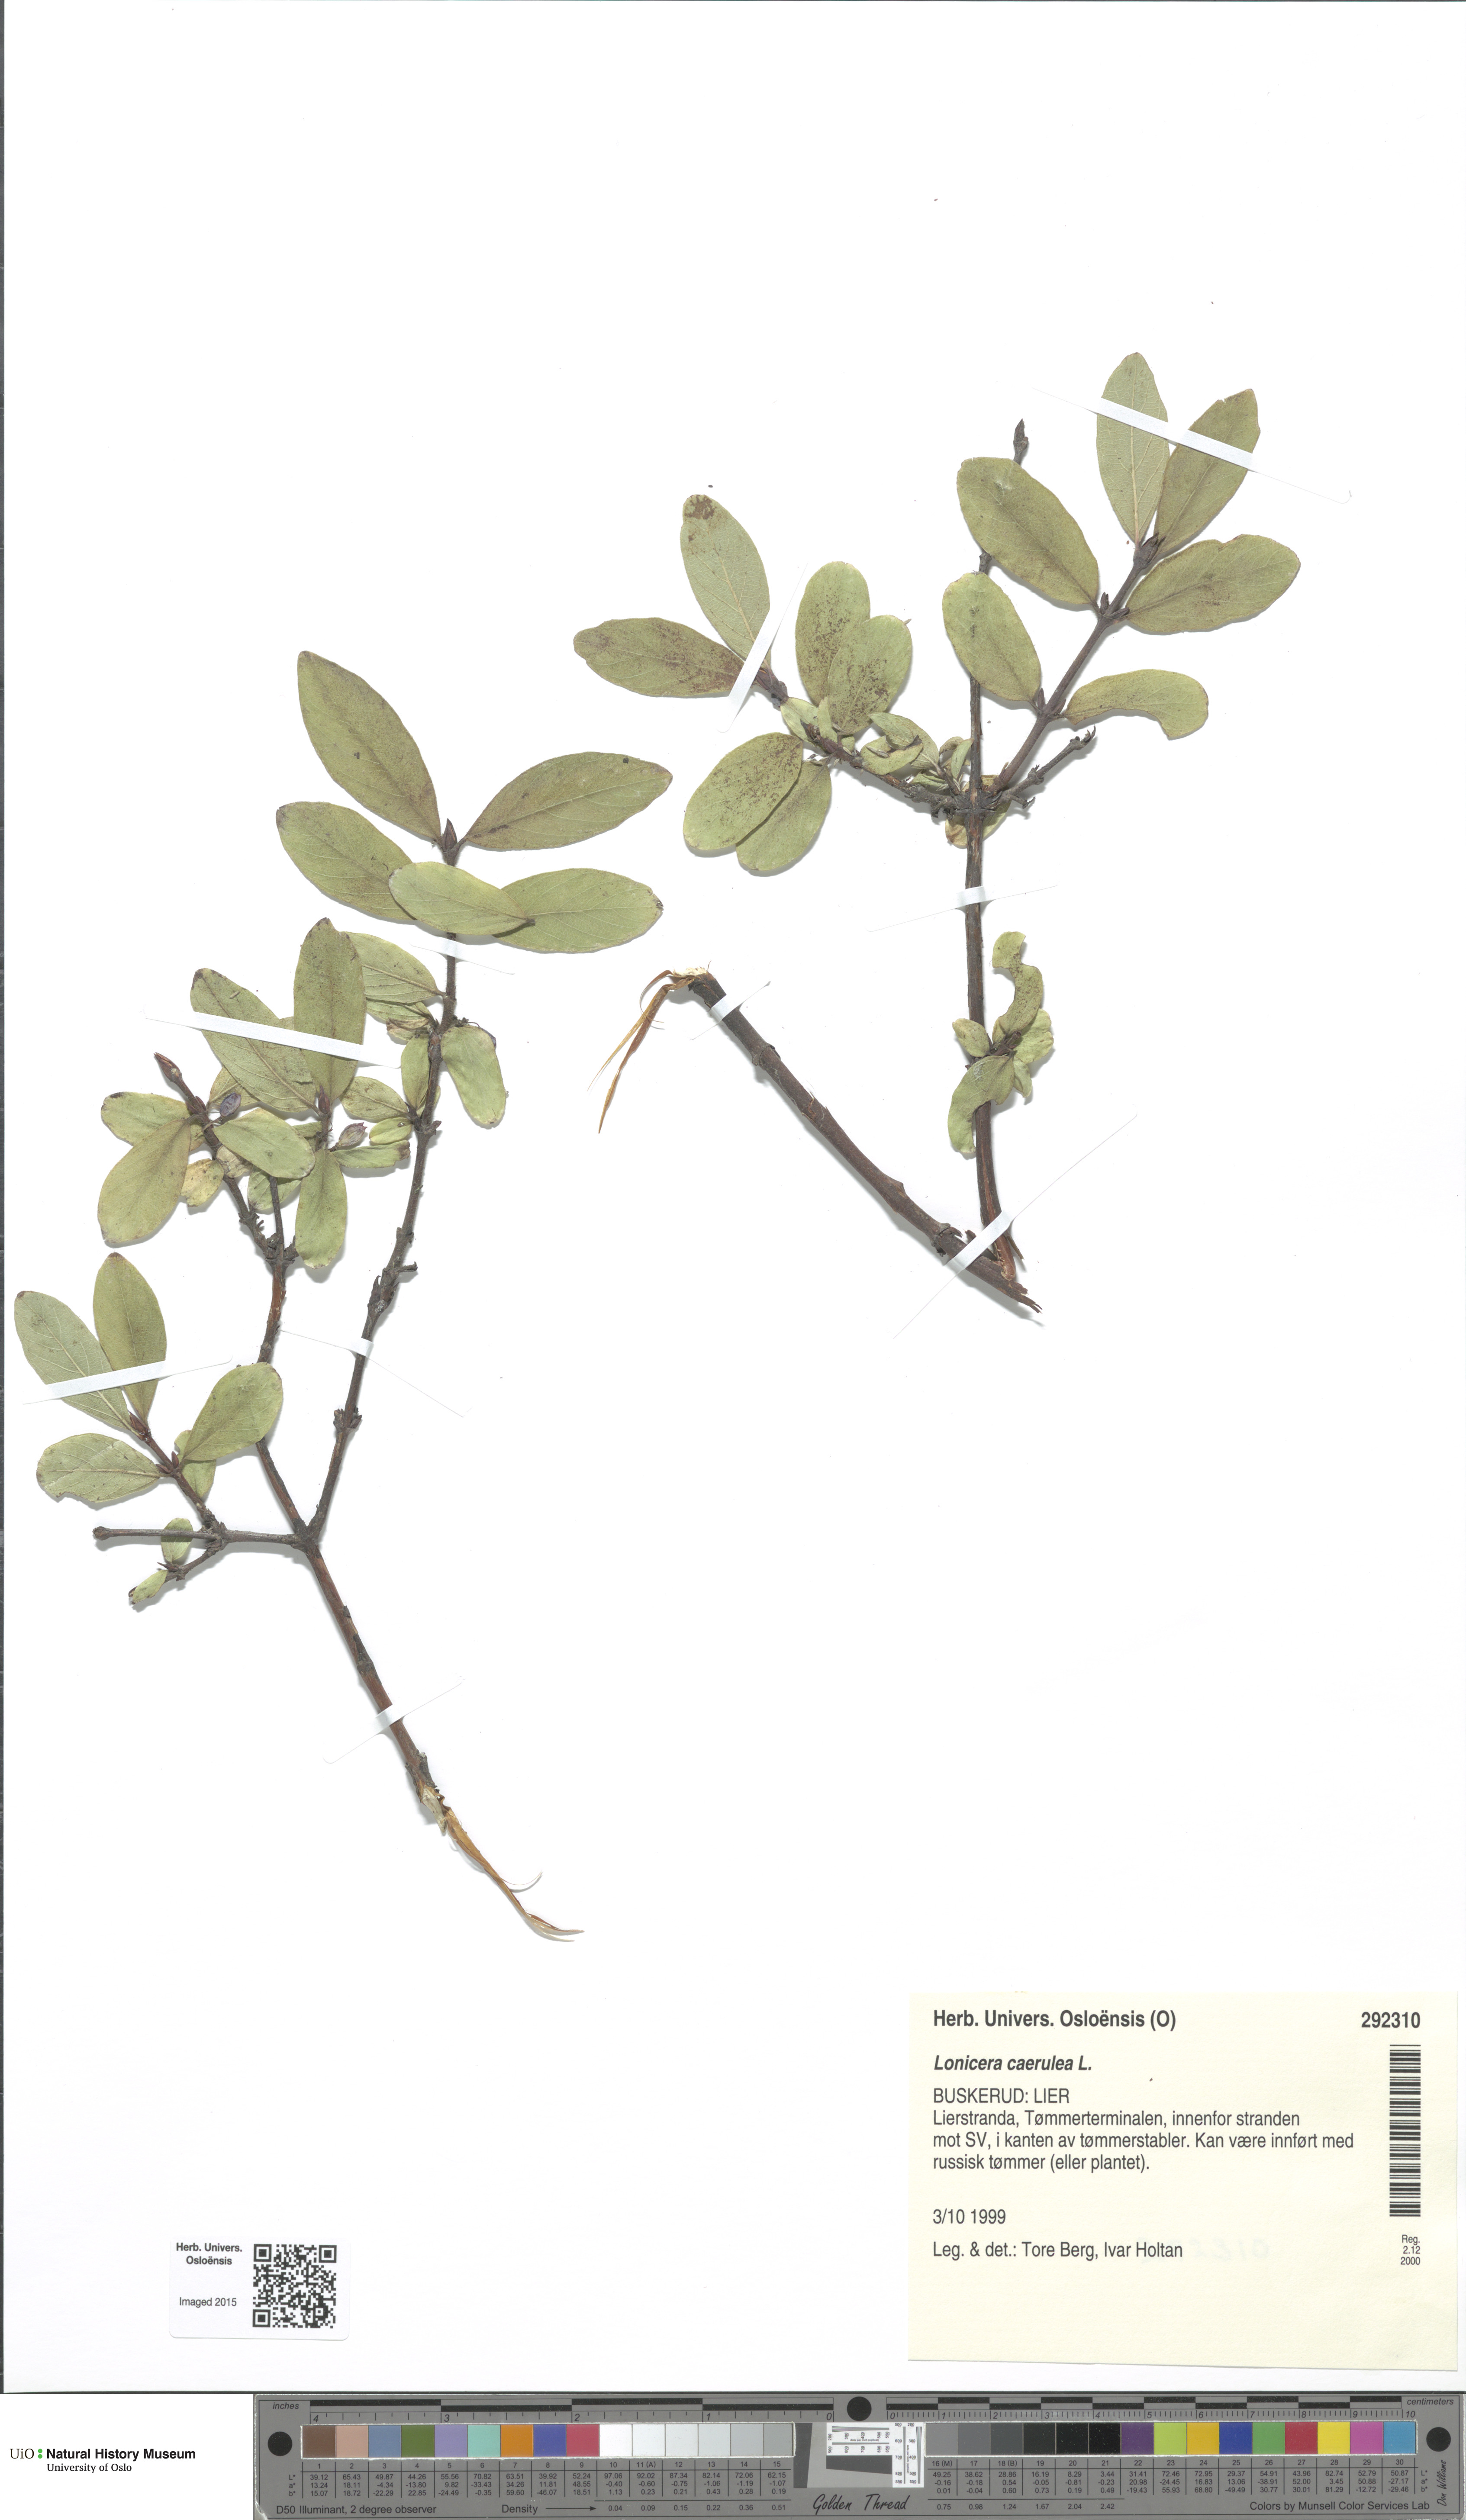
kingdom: Plantae
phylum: Tracheophyta
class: Magnoliopsida
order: Dipsacales
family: Caprifoliaceae
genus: Lonicera
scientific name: Lonicera caerulea
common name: Blue honeysuckle
